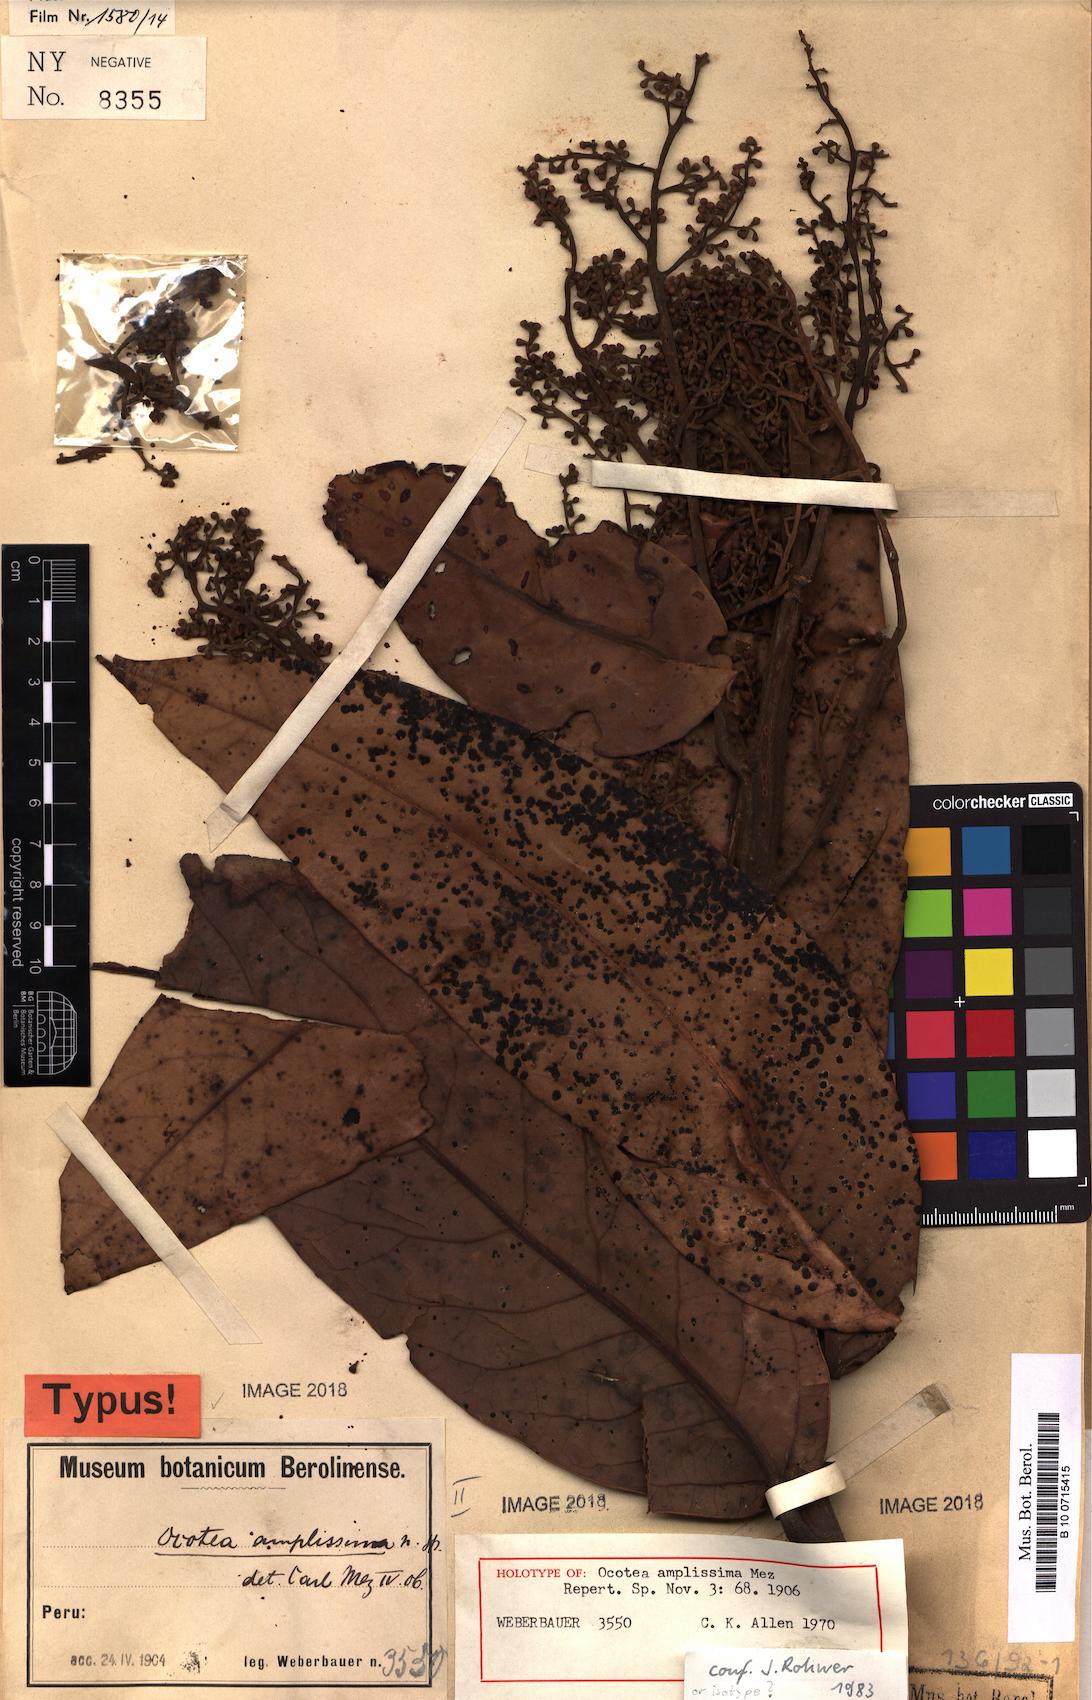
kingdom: Plantae
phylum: Tracheophyta
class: Magnoliopsida
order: Laurales
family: Lauraceae
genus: Ocotea
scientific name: Ocotea amplissima
